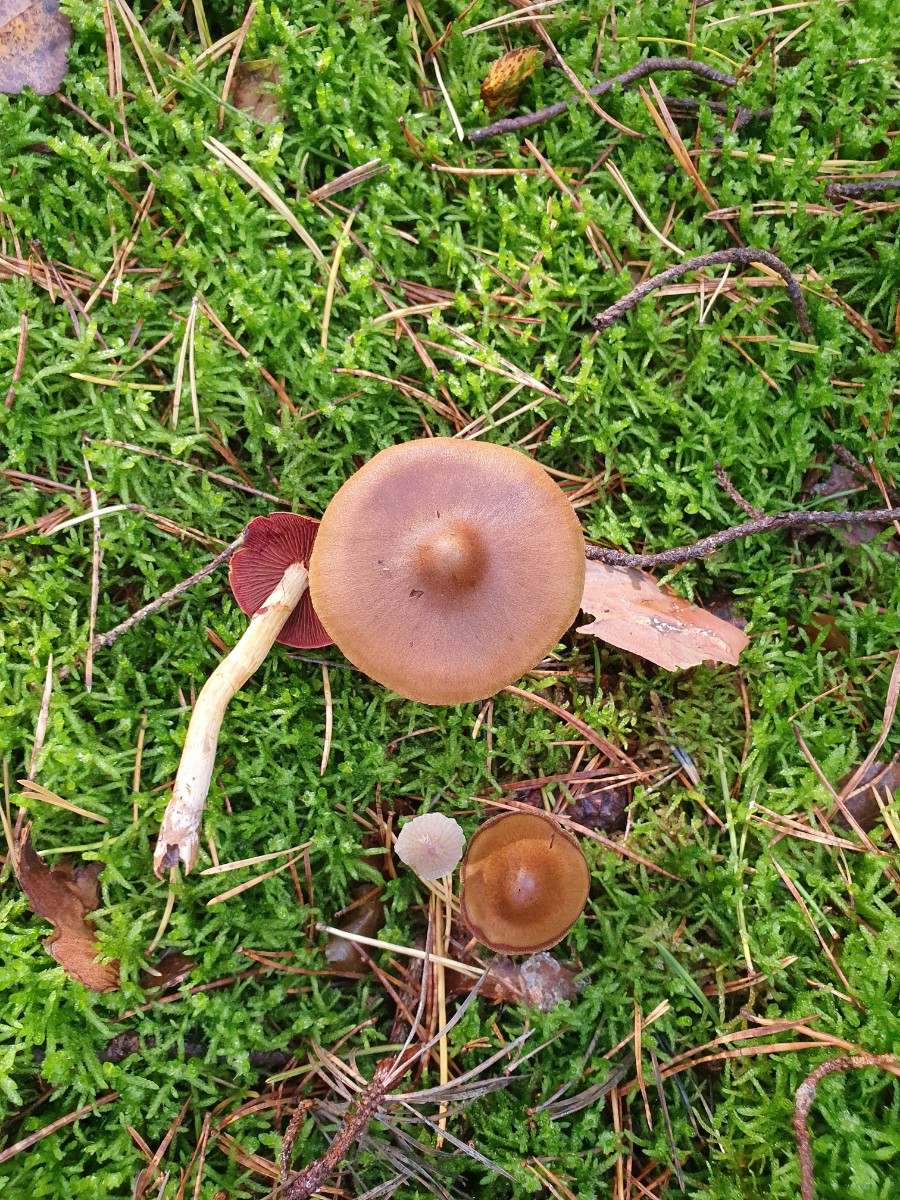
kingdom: Fungi
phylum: Basidiomycota
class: Agaricomycetes
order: Agaricales
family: Cortinariaceae
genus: Cortinarius
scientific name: Cortinarius
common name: cinnoberbladet slørhat
